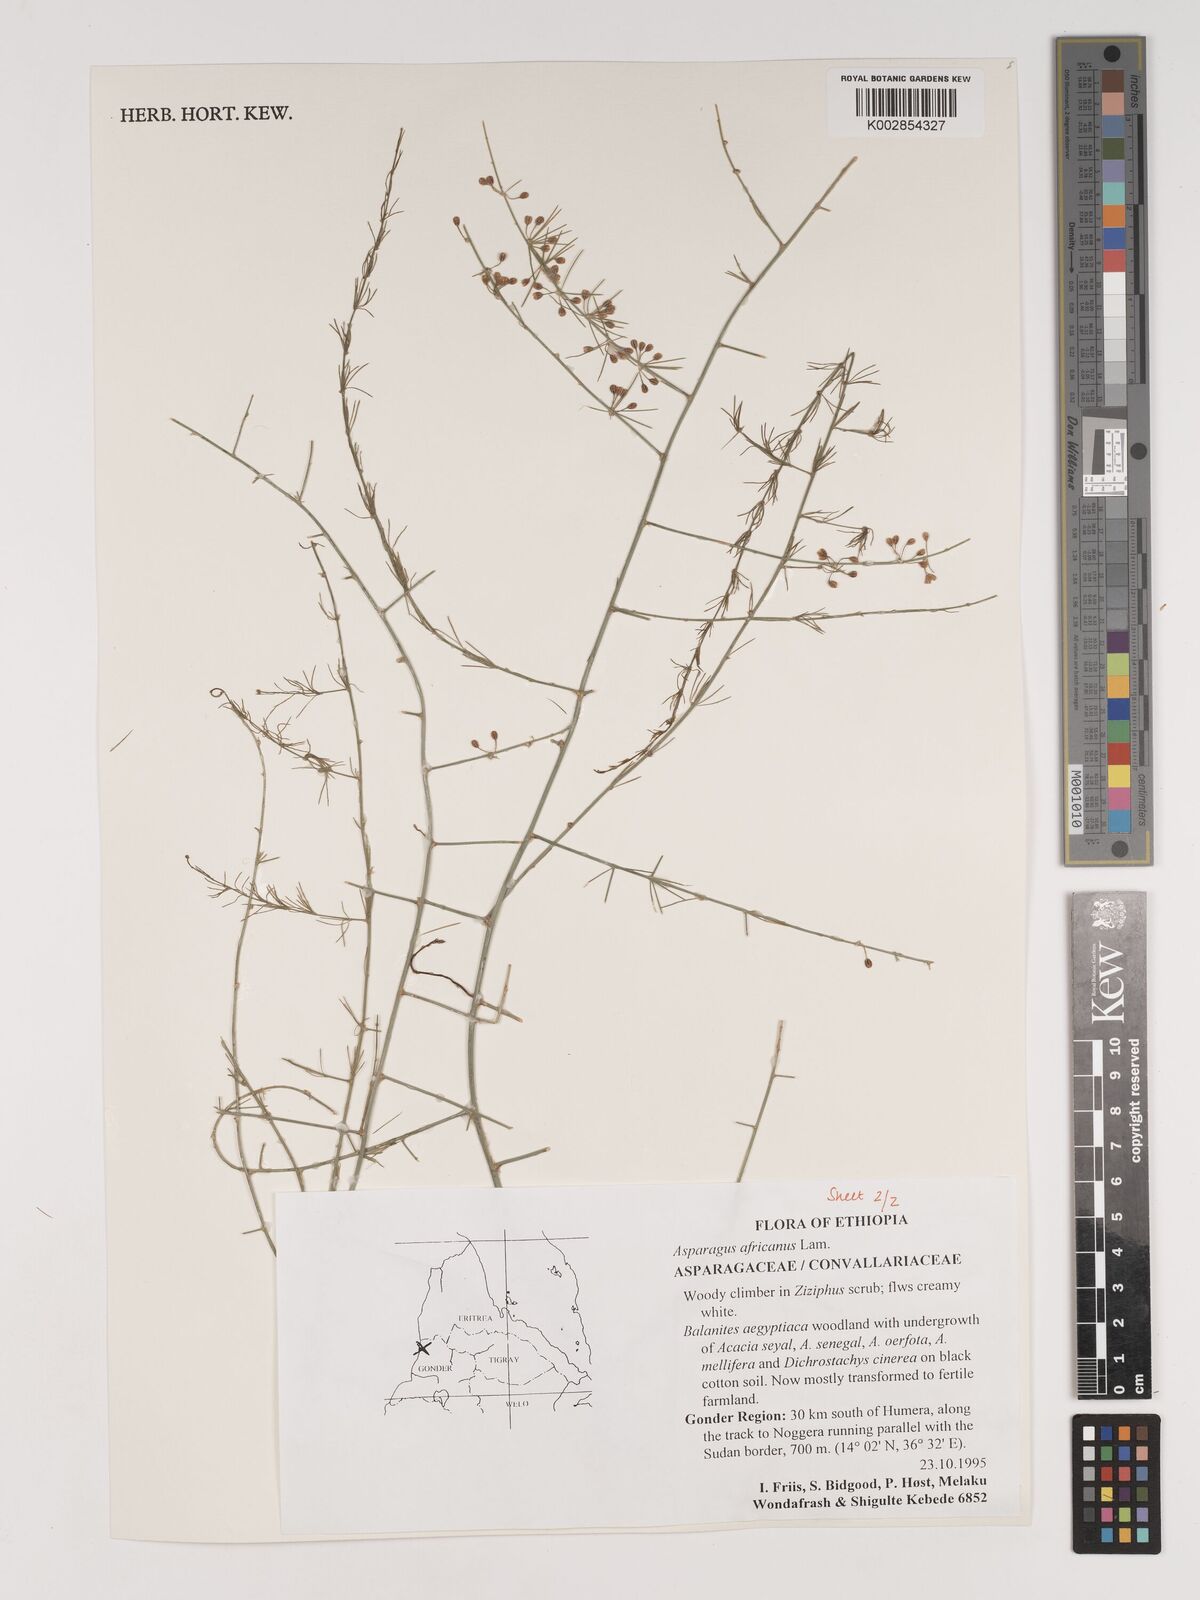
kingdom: Plantae
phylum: Tracheophyta
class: Liliopsida
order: Asparagales
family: Asparagaceae
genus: Asparagus
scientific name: Asparagus africanus
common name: Asparagus-fern
